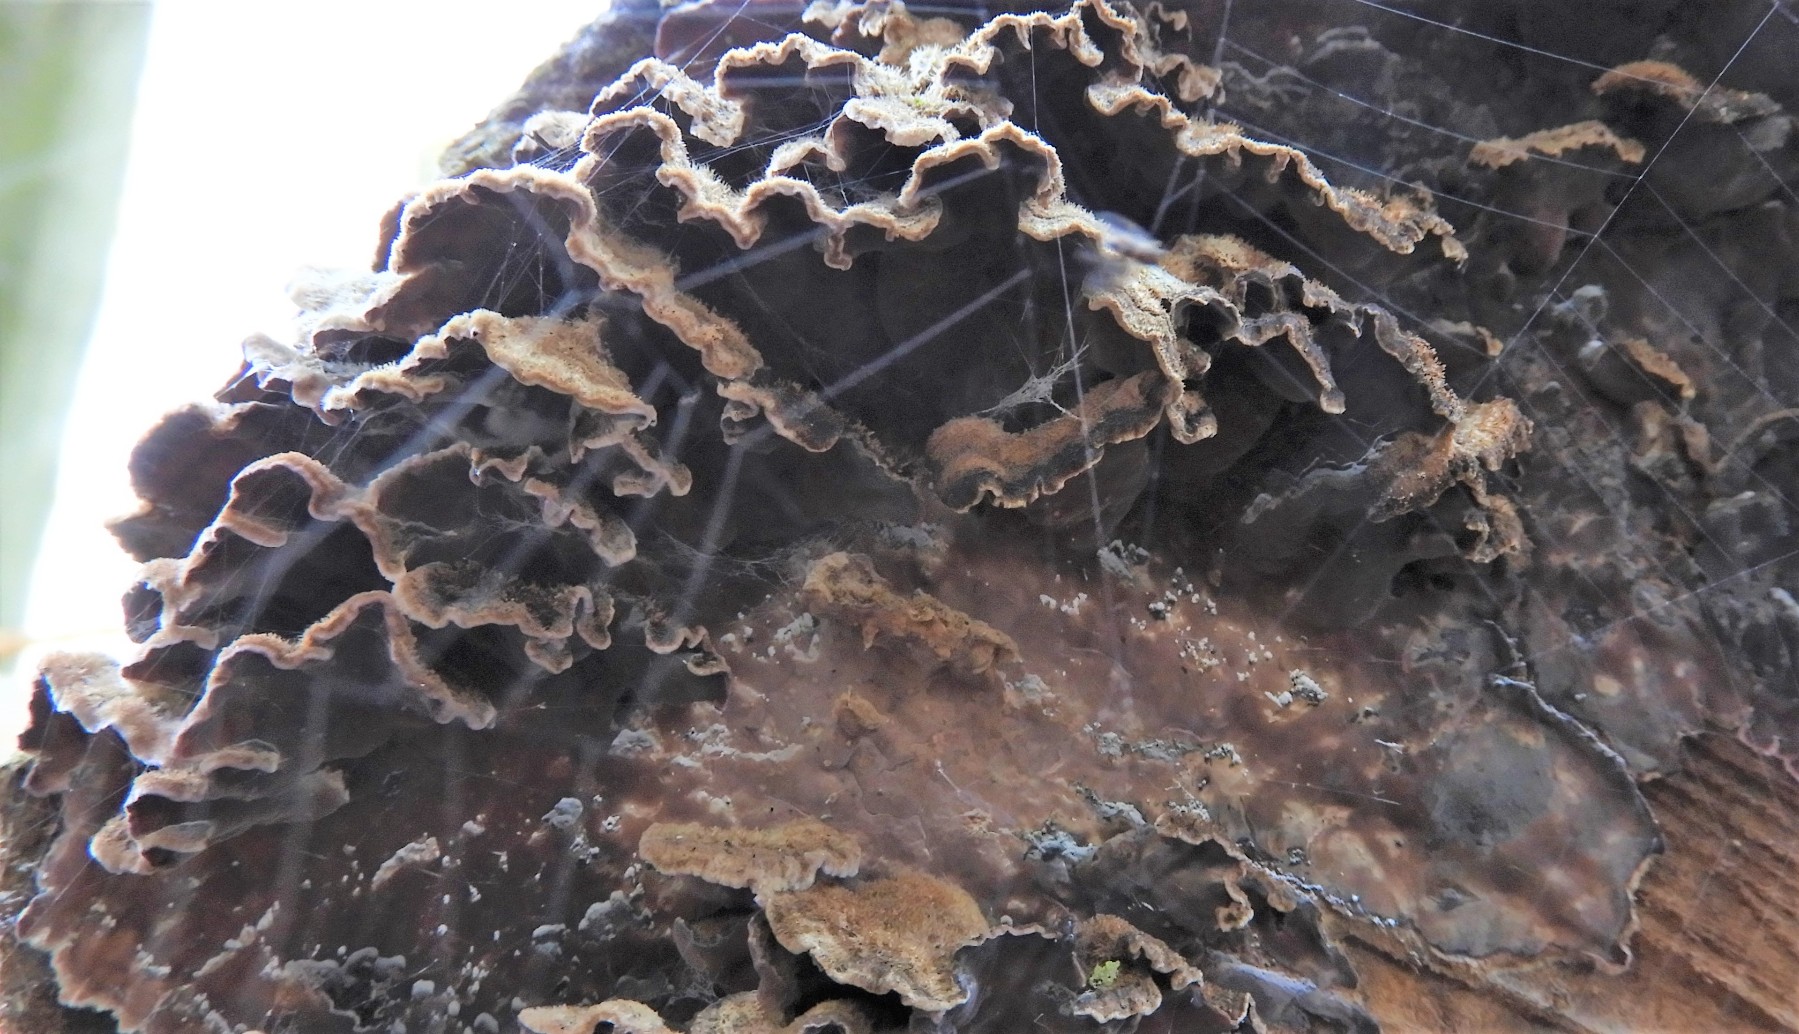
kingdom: Fungi
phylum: Basidiomycota
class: Agaricomycetes
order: Agaricales
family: Cyphellaceae
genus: Chondrostereum
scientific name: Chondrostereum purpureum
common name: purpurlædersvamp
